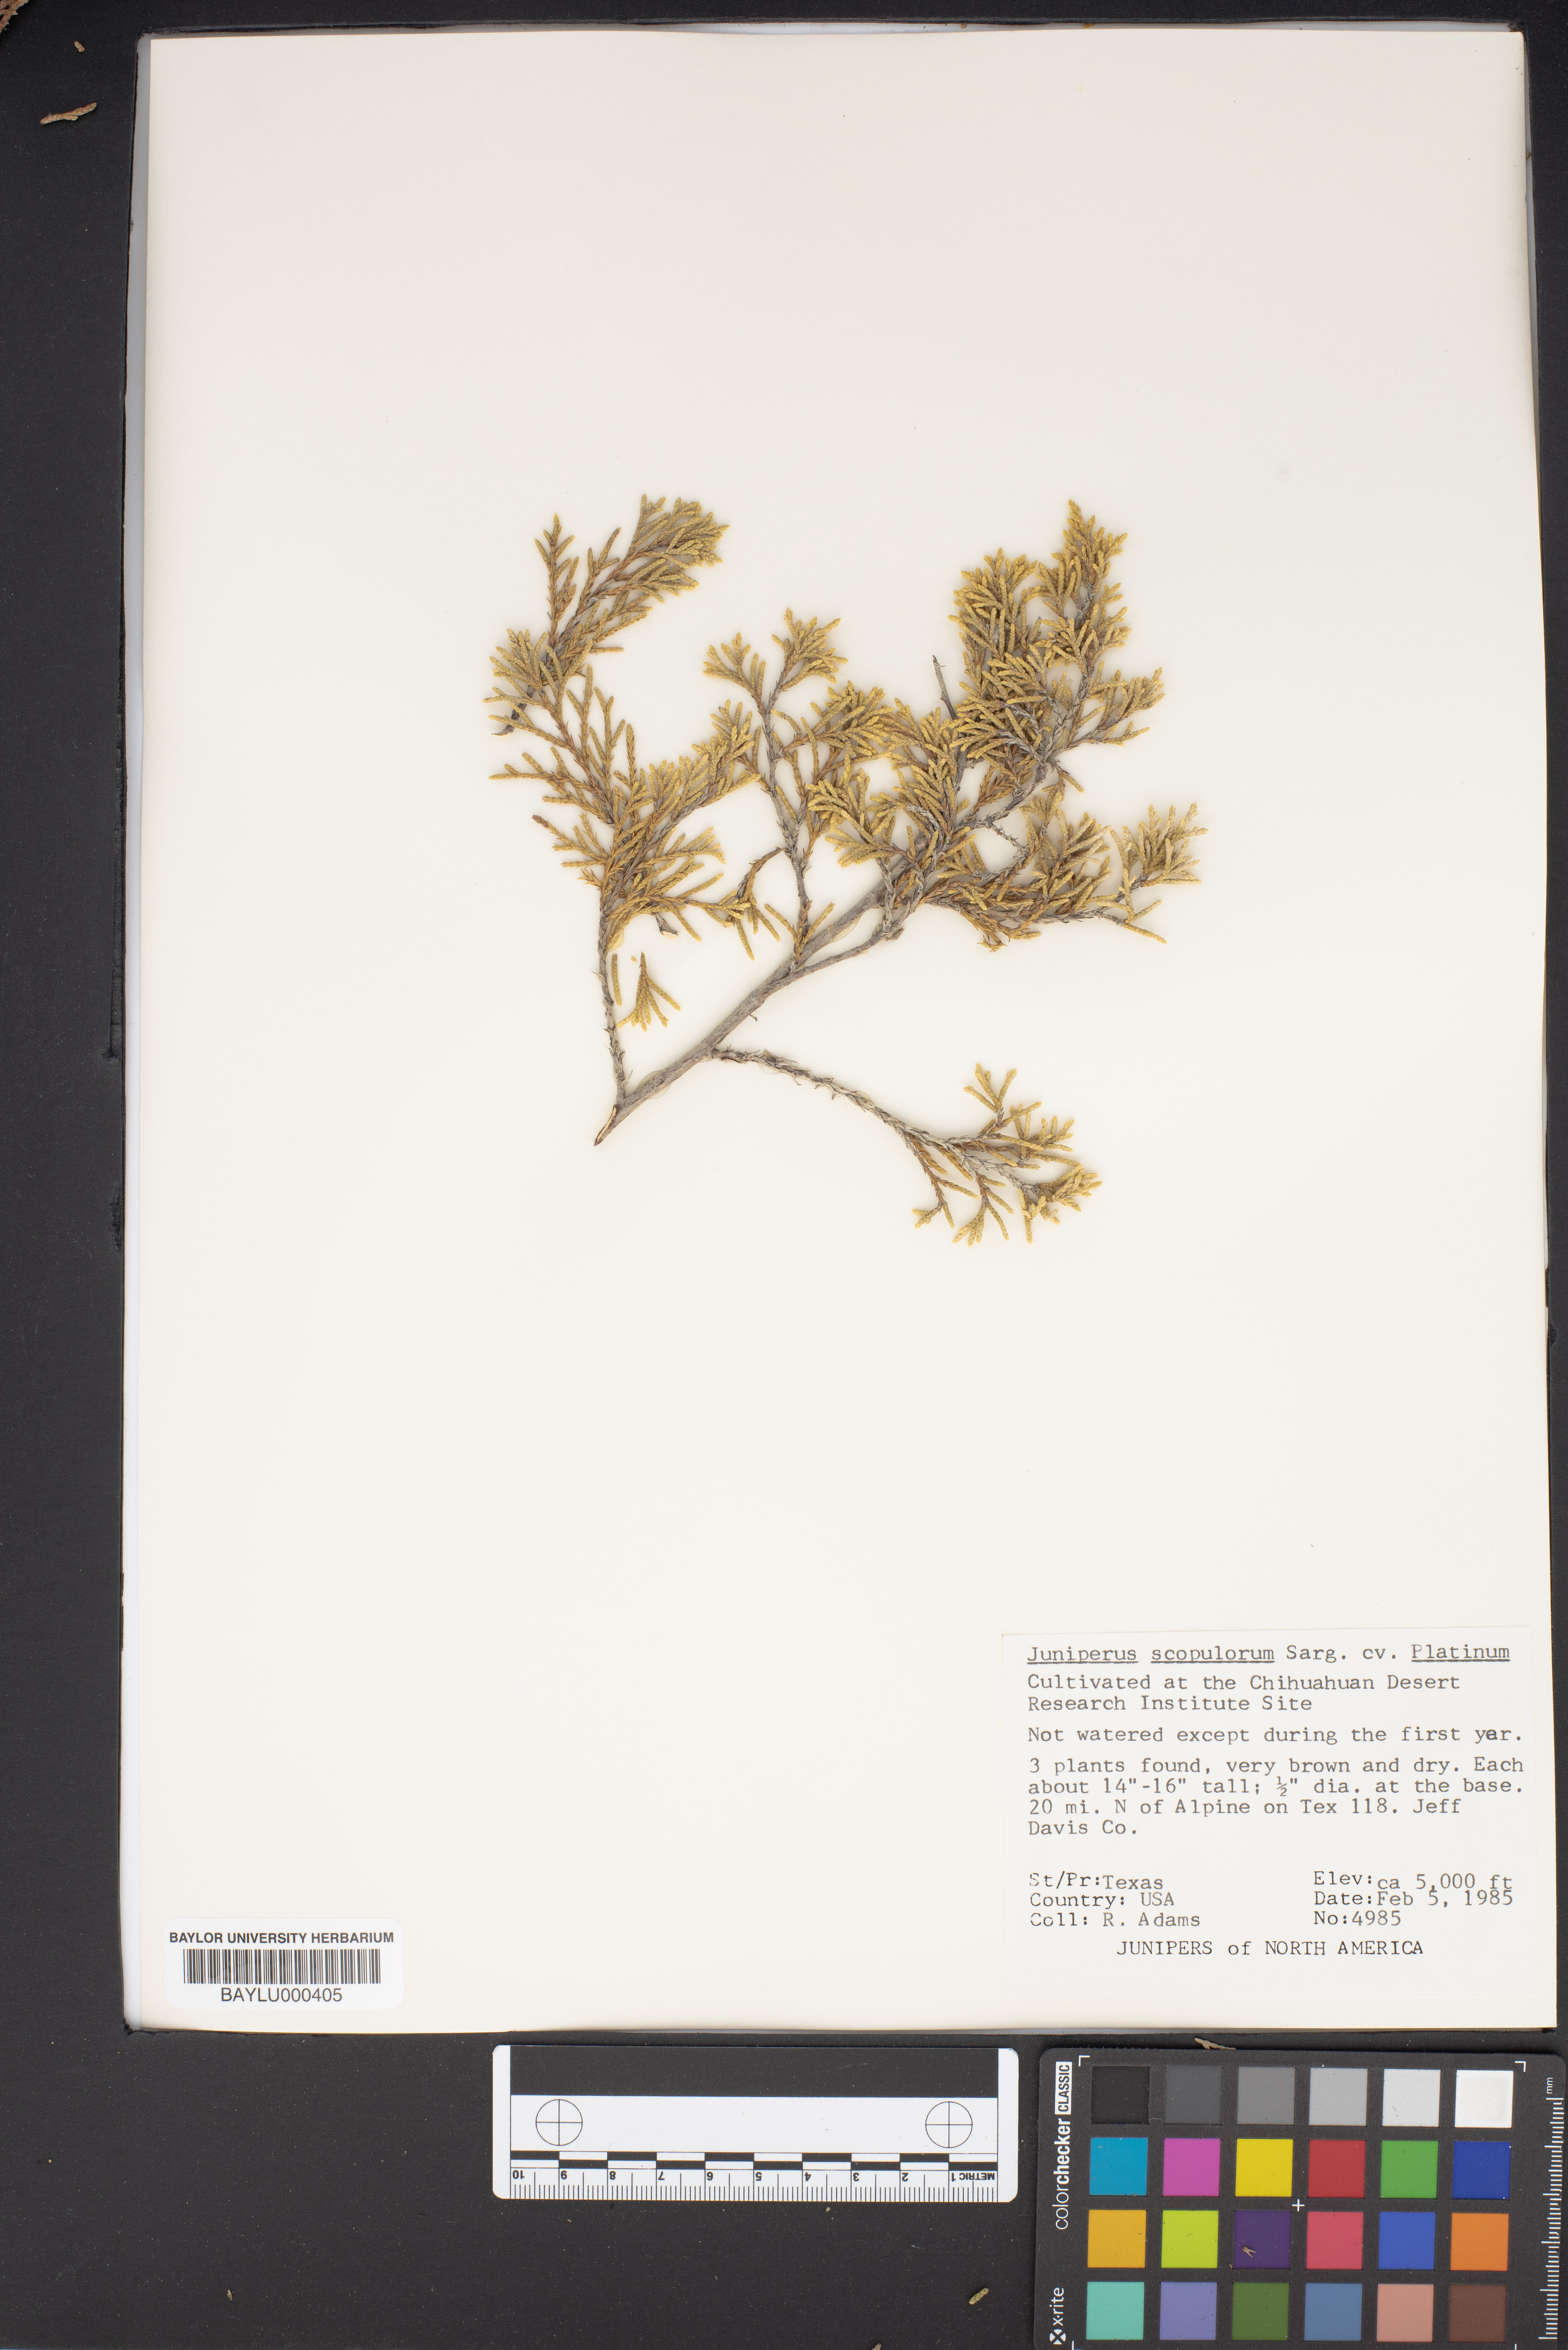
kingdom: Plantae
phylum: Tracheophyta
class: Pinopsida
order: Pinales
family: Cupressaceae
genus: Juniperus
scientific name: Juniperus scopulorum
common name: Rocky mountain juniper
